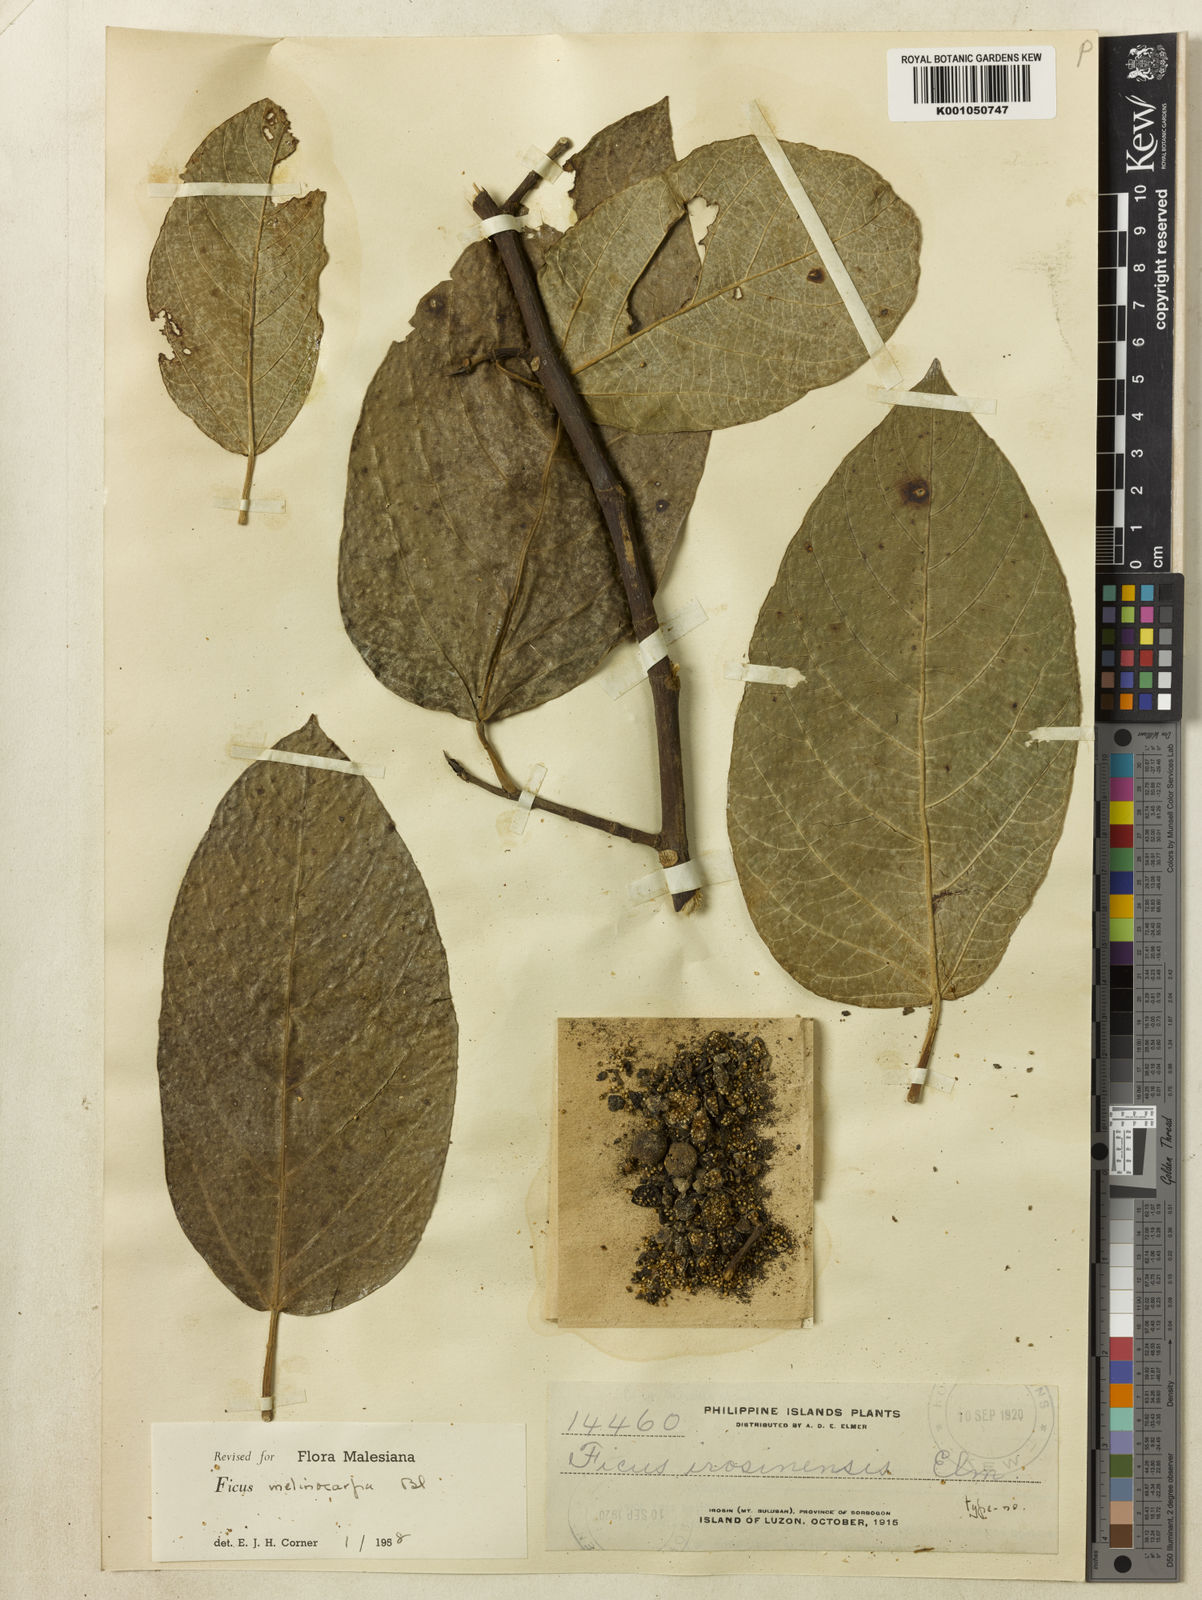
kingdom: Plantae
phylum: Tracheophyta
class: Magnoliopsida
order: Rosales
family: Moraceae
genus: Ficus
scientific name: Ficus melinocarpa
